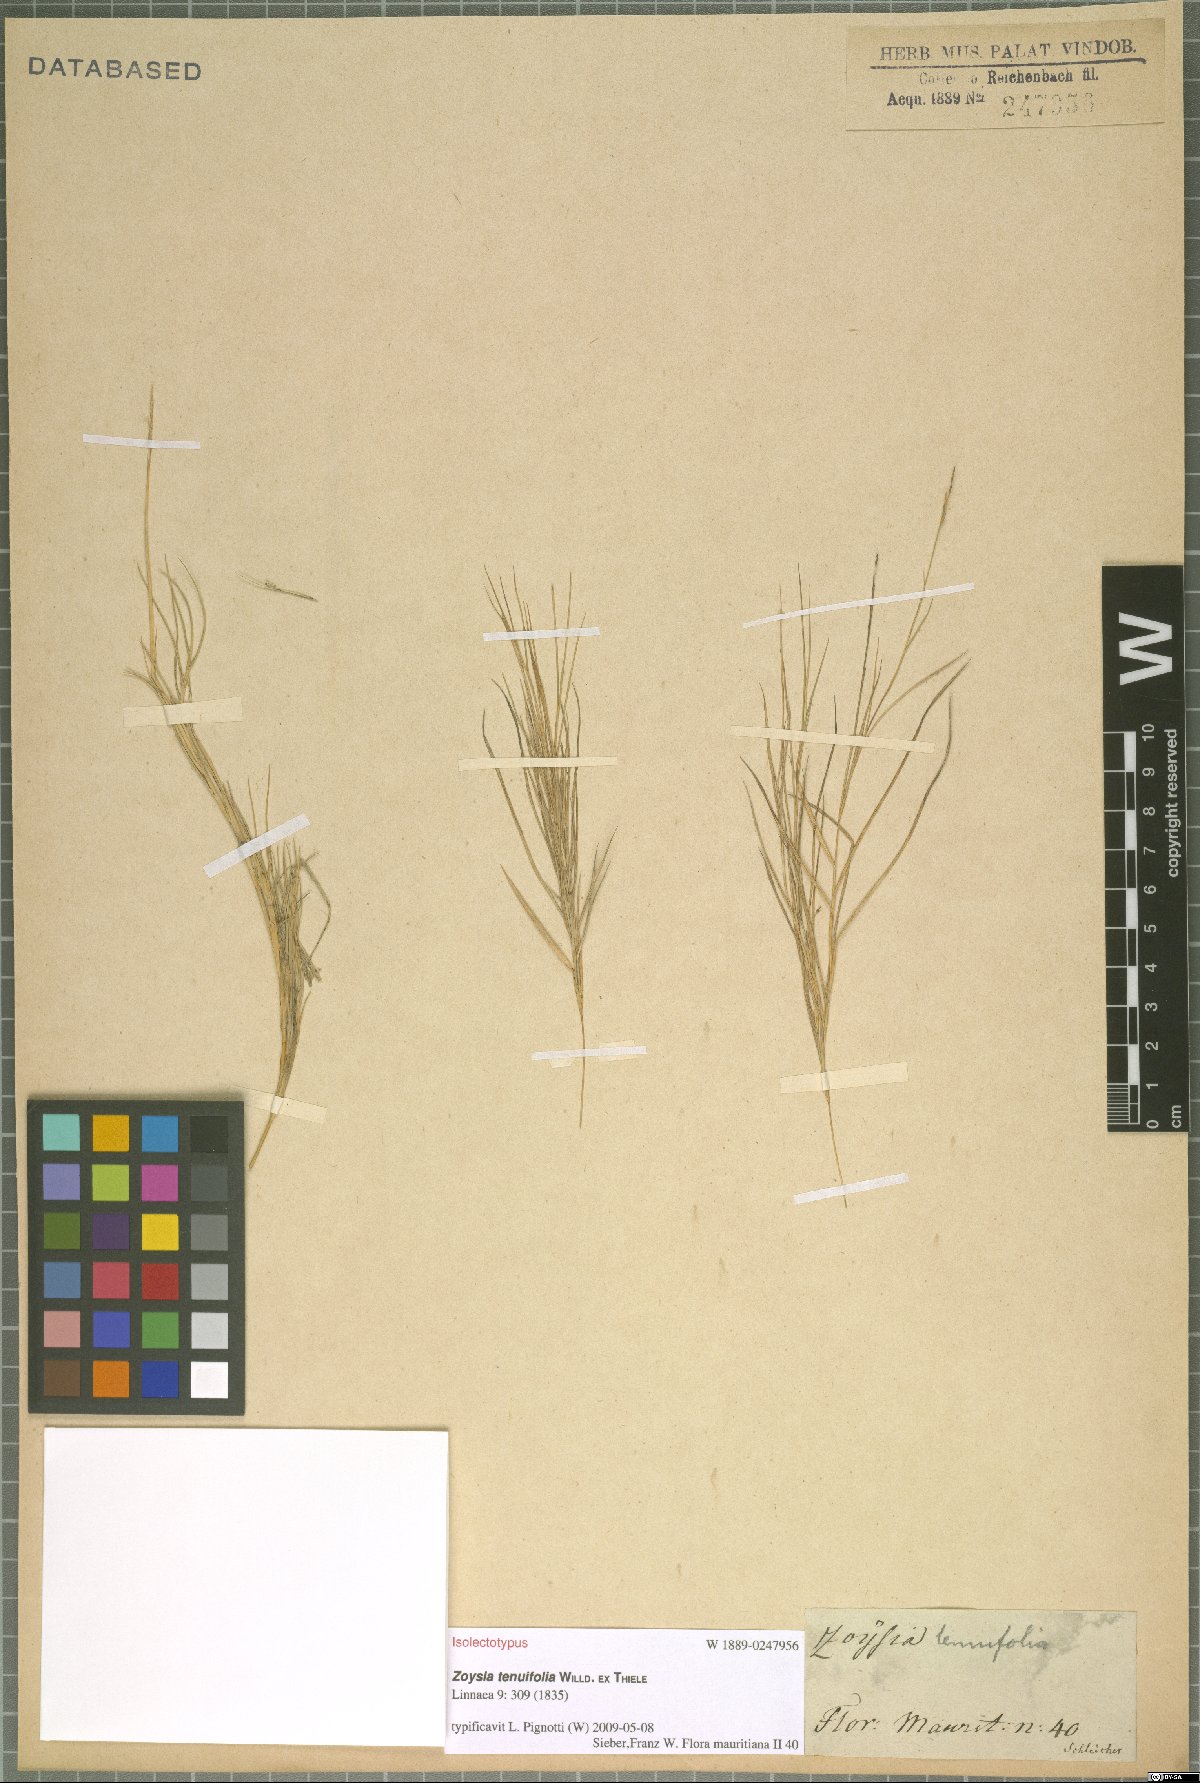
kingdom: Plantae
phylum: Tracheophyta
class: Liliopsida
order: Poales
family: Poaceae
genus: Zoysia
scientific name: Zoysia matrella
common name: Manila grass
